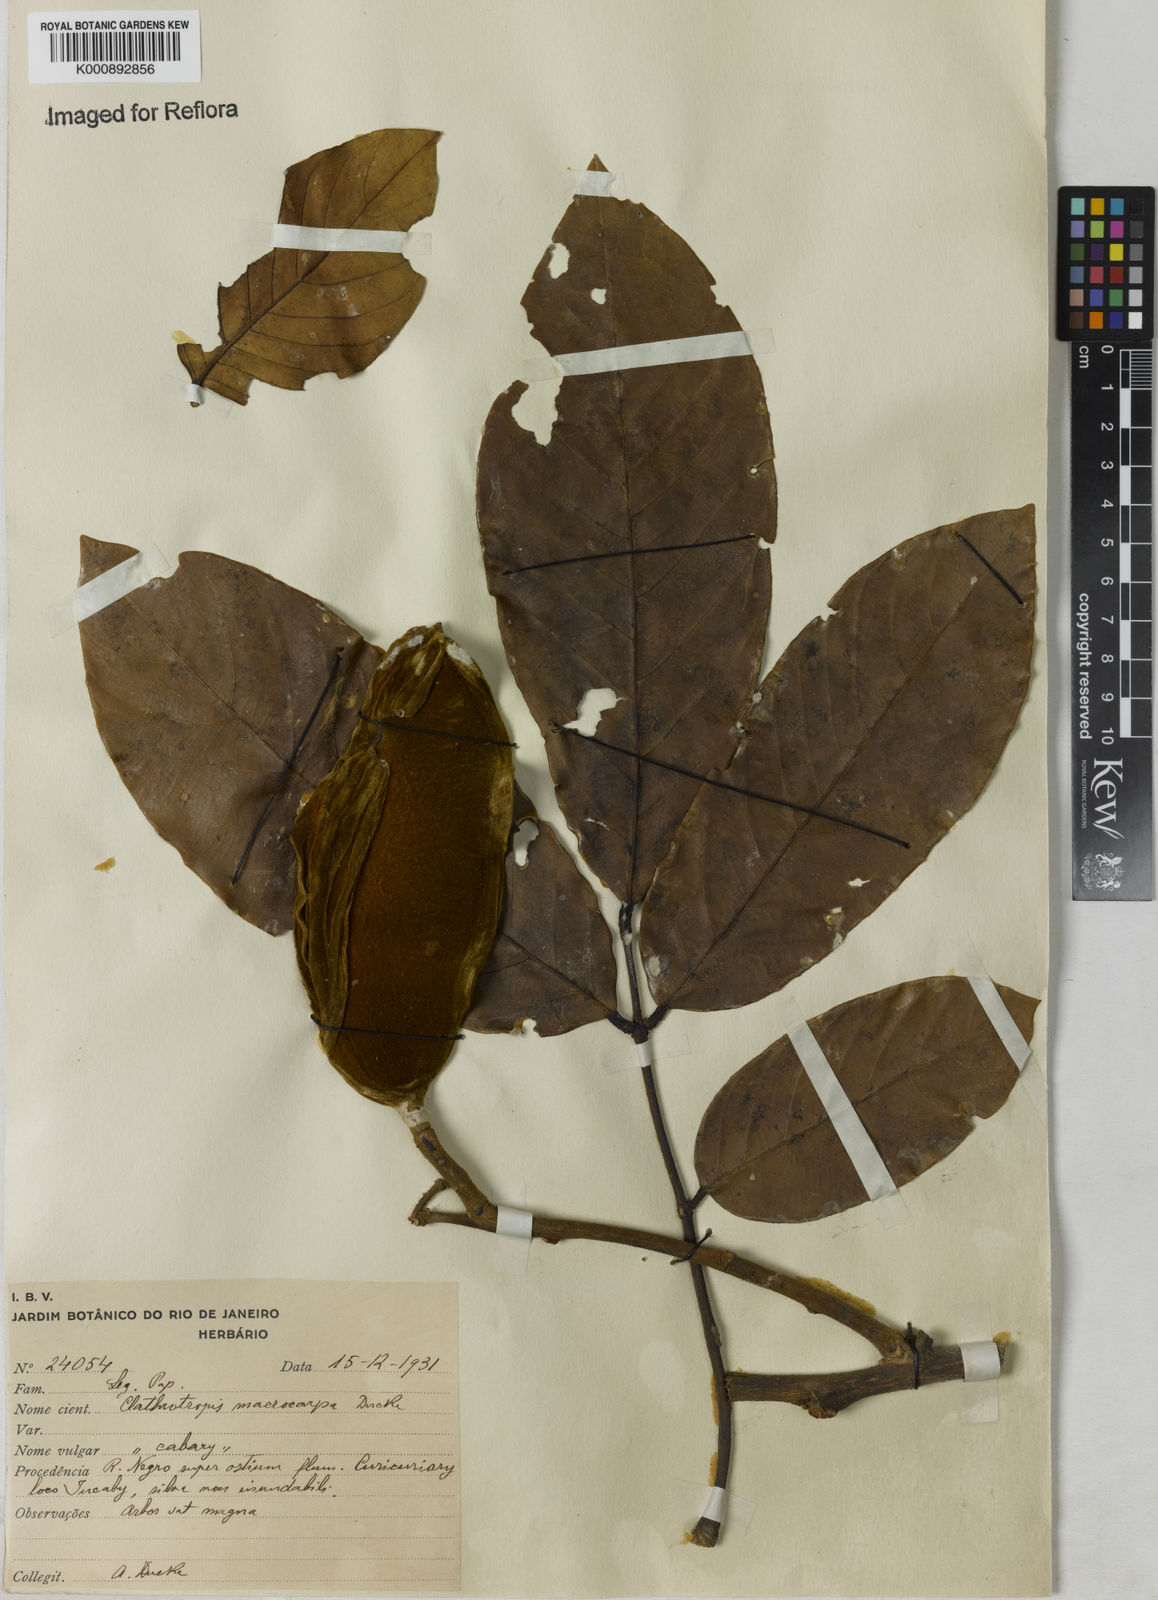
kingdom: Plantae
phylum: Tracheophyta
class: Magnoliopsida
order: Fabales
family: Fabaceae
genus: Clathrotropis
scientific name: Clathrotropis macrocarpa
